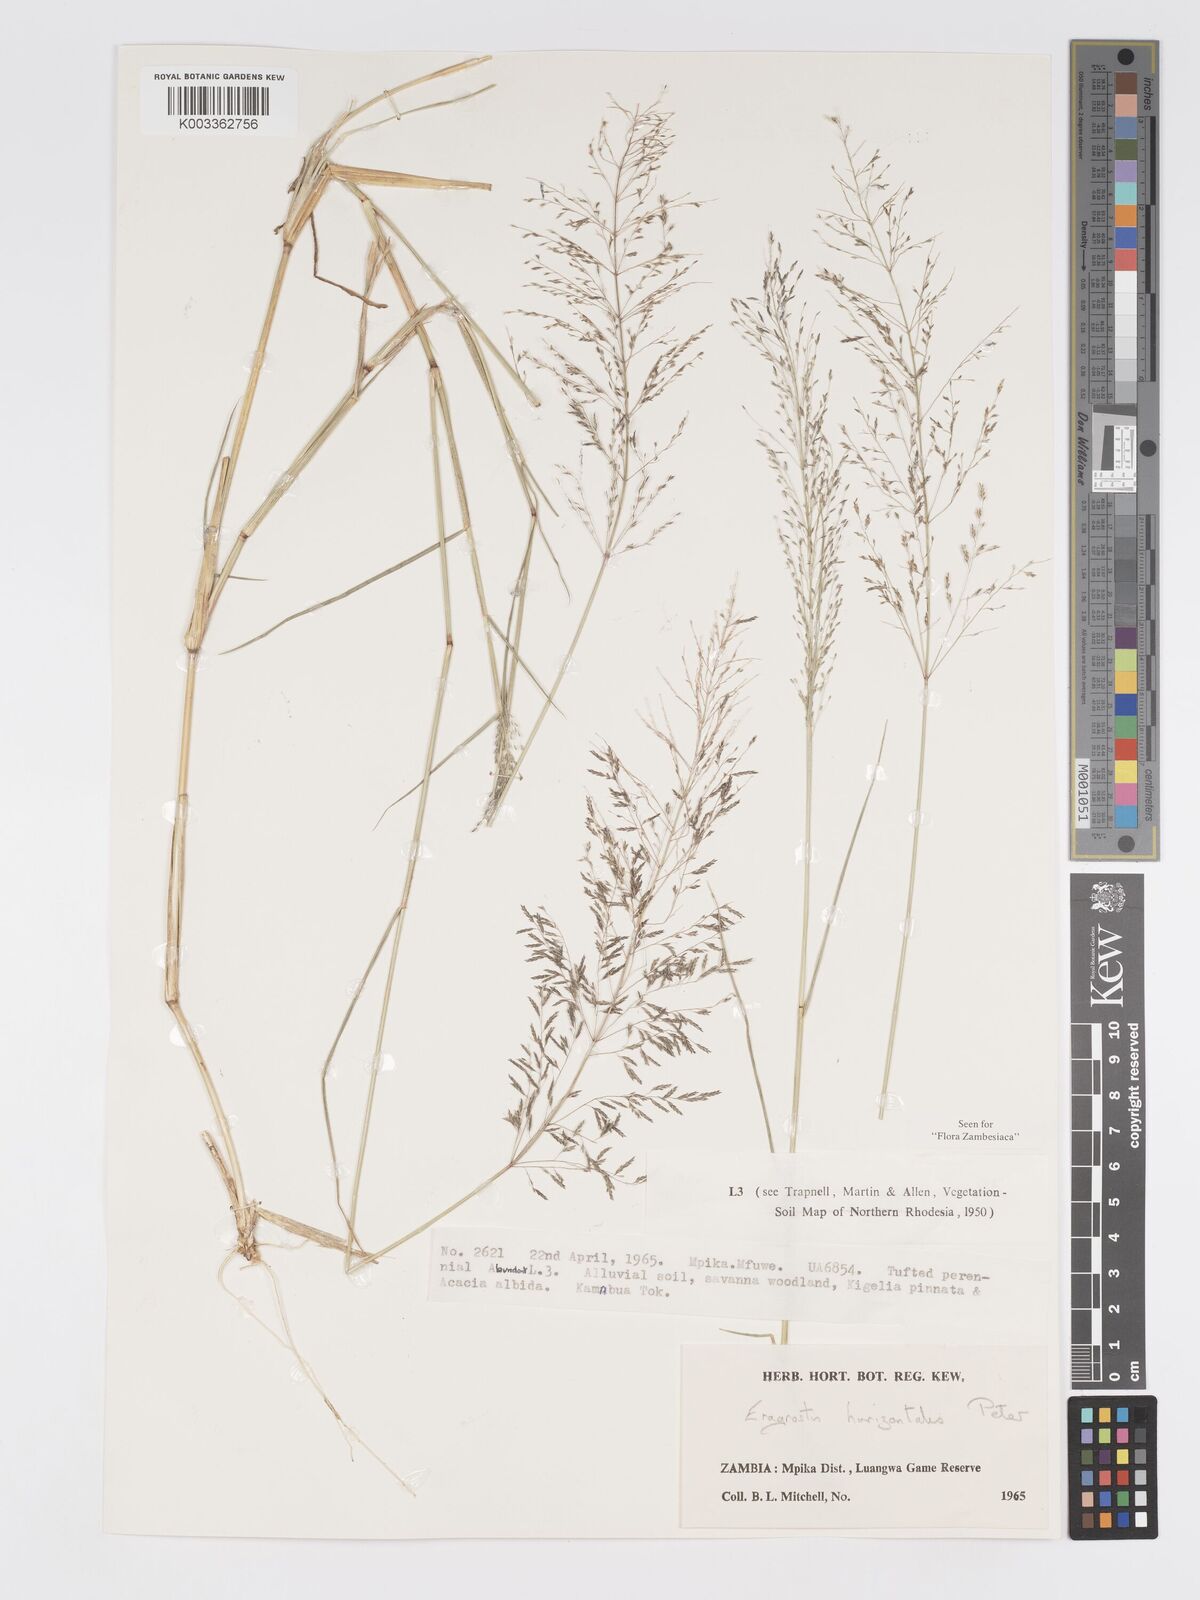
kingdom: Plantae
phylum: Tracheophyta
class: Liliopsida
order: Poales
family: Poaceae
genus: Eragrostis
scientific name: Eragrostis cylindriflora
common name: Cylinderflower lovegrass
